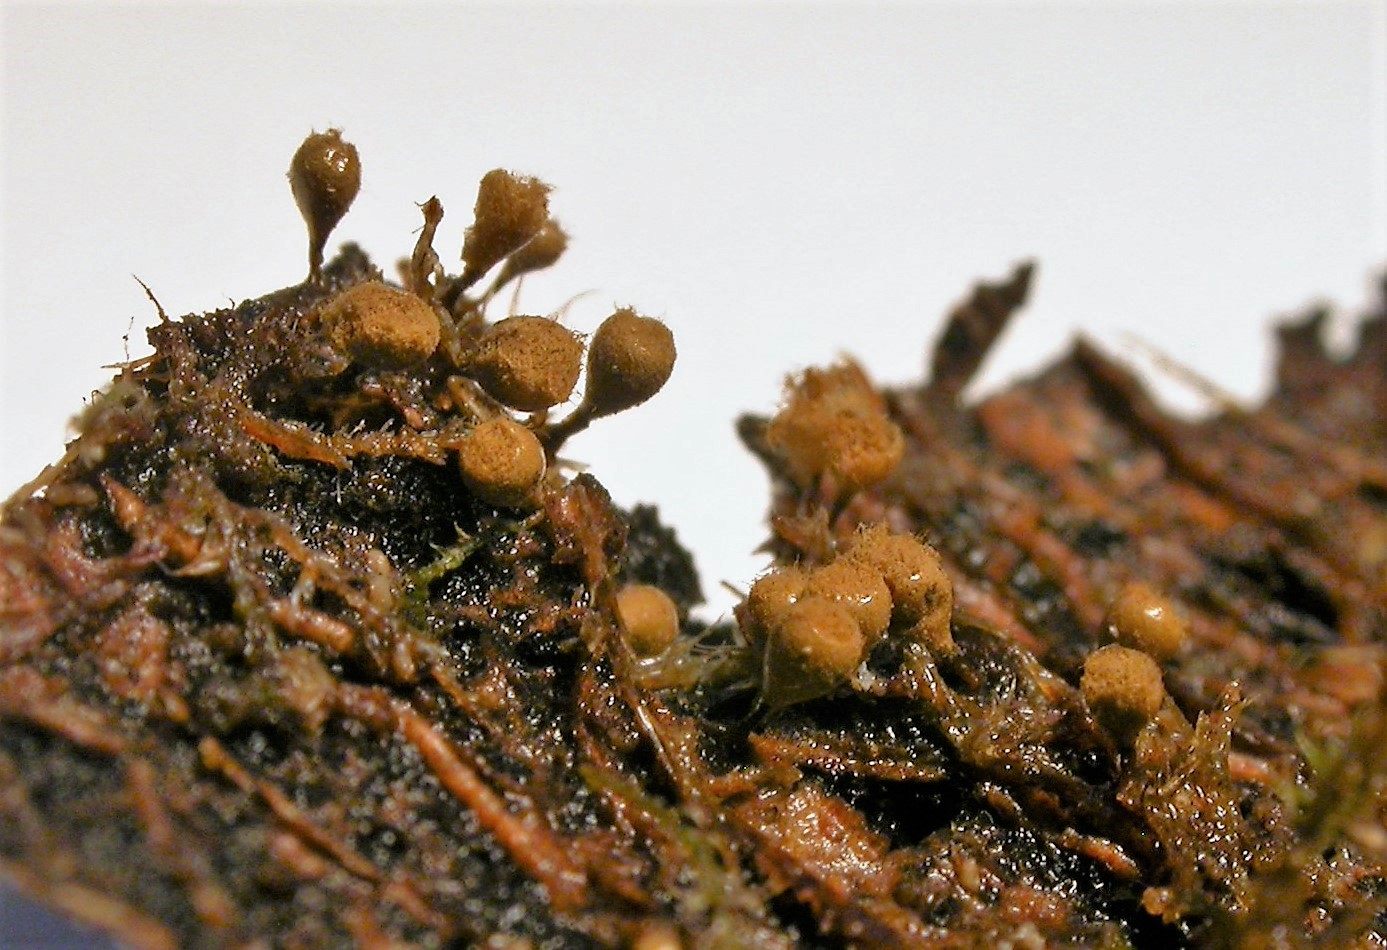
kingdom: Protozoa
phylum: Mycetozoa
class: Myxomycetes
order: Trichiales
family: Arcyriaceae
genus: Hemitrichia
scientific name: Hemitrichia decipiens
